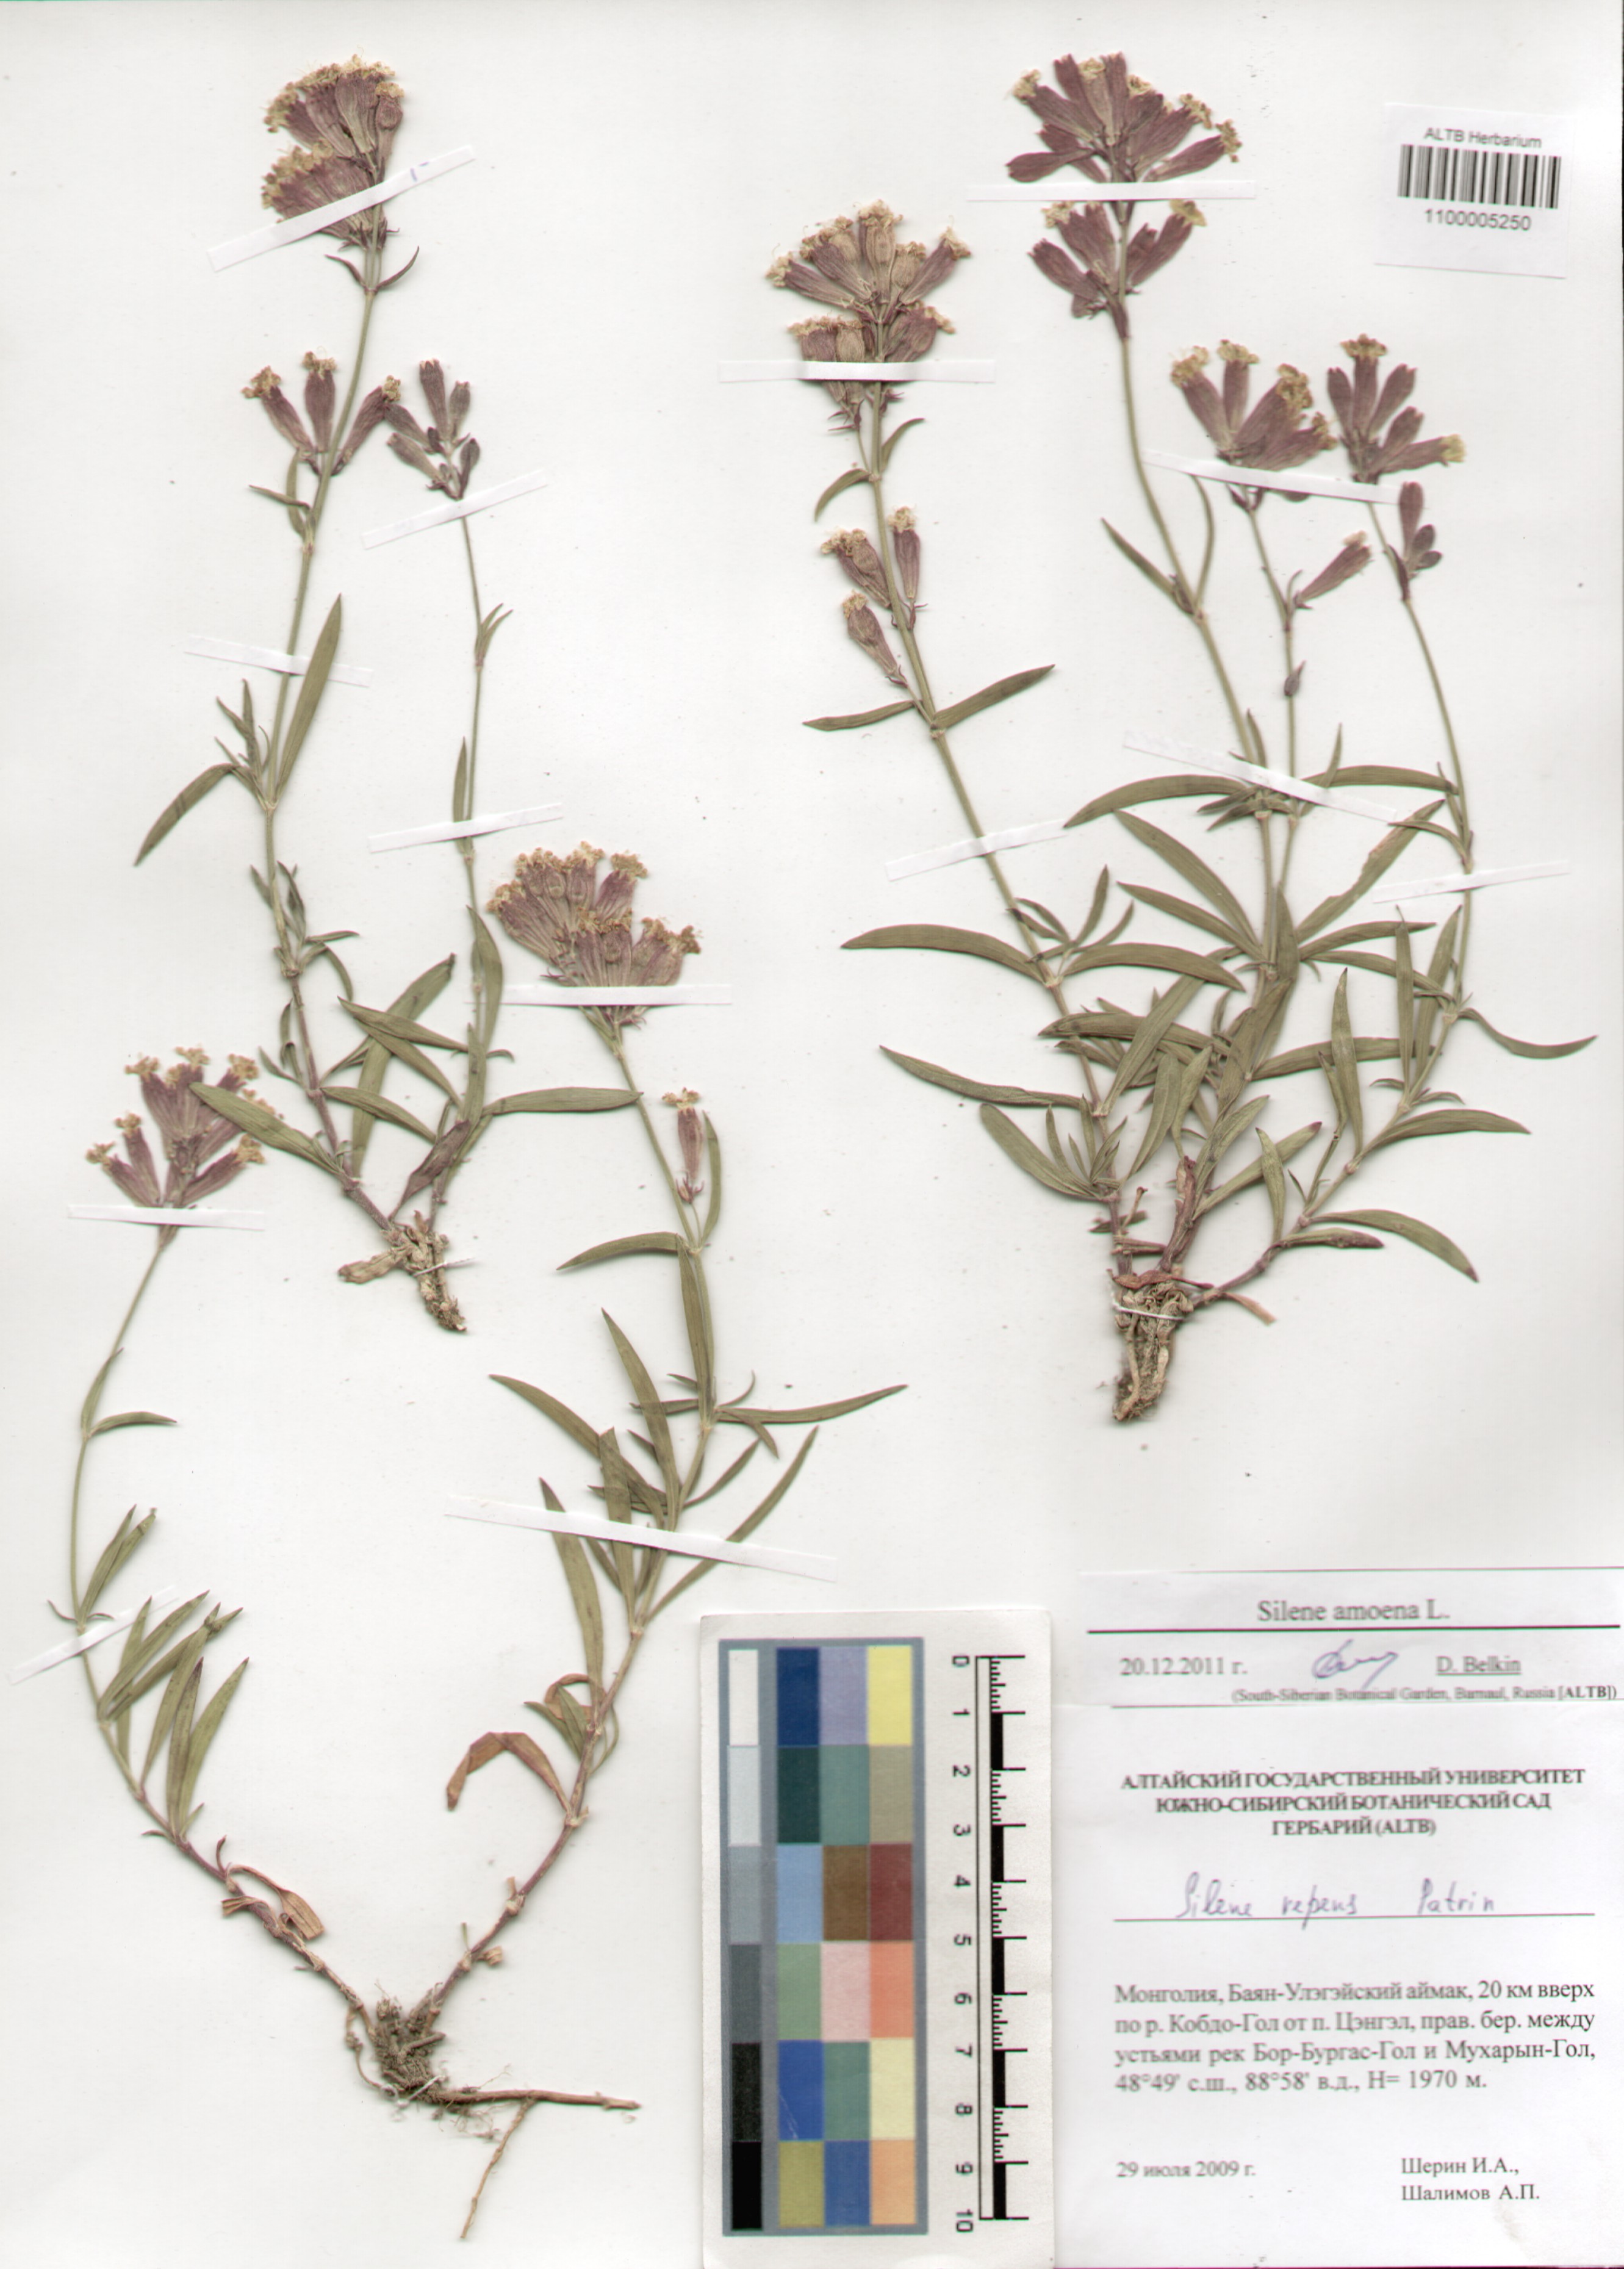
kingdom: Plantae
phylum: Tracheophyta
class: Magnoliopsida
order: Caryophyllales
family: Caryophyllaceae
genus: Silene
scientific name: Silene amoena
